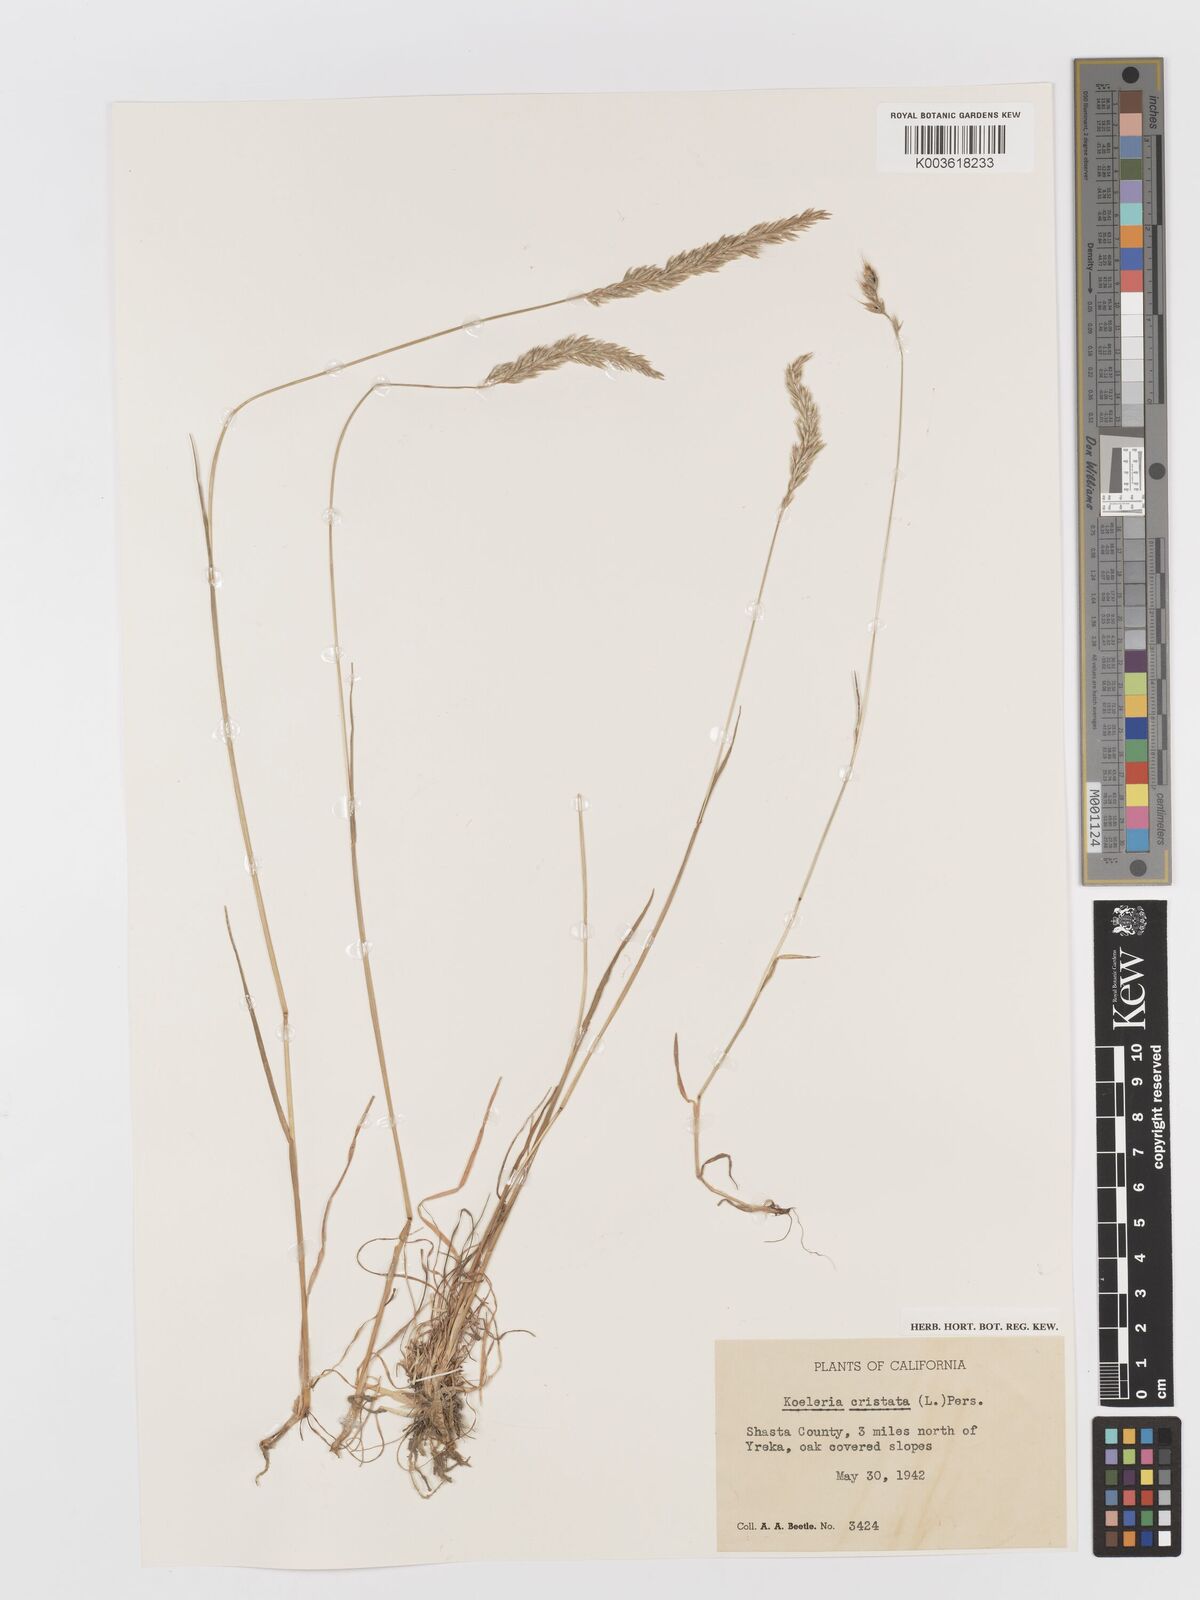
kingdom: Plantae
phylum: Tracheophyta
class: Liliopsida
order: Poales
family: Poaceae
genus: Koeleria
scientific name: Koeleria macrantha
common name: Crested hair-grass
